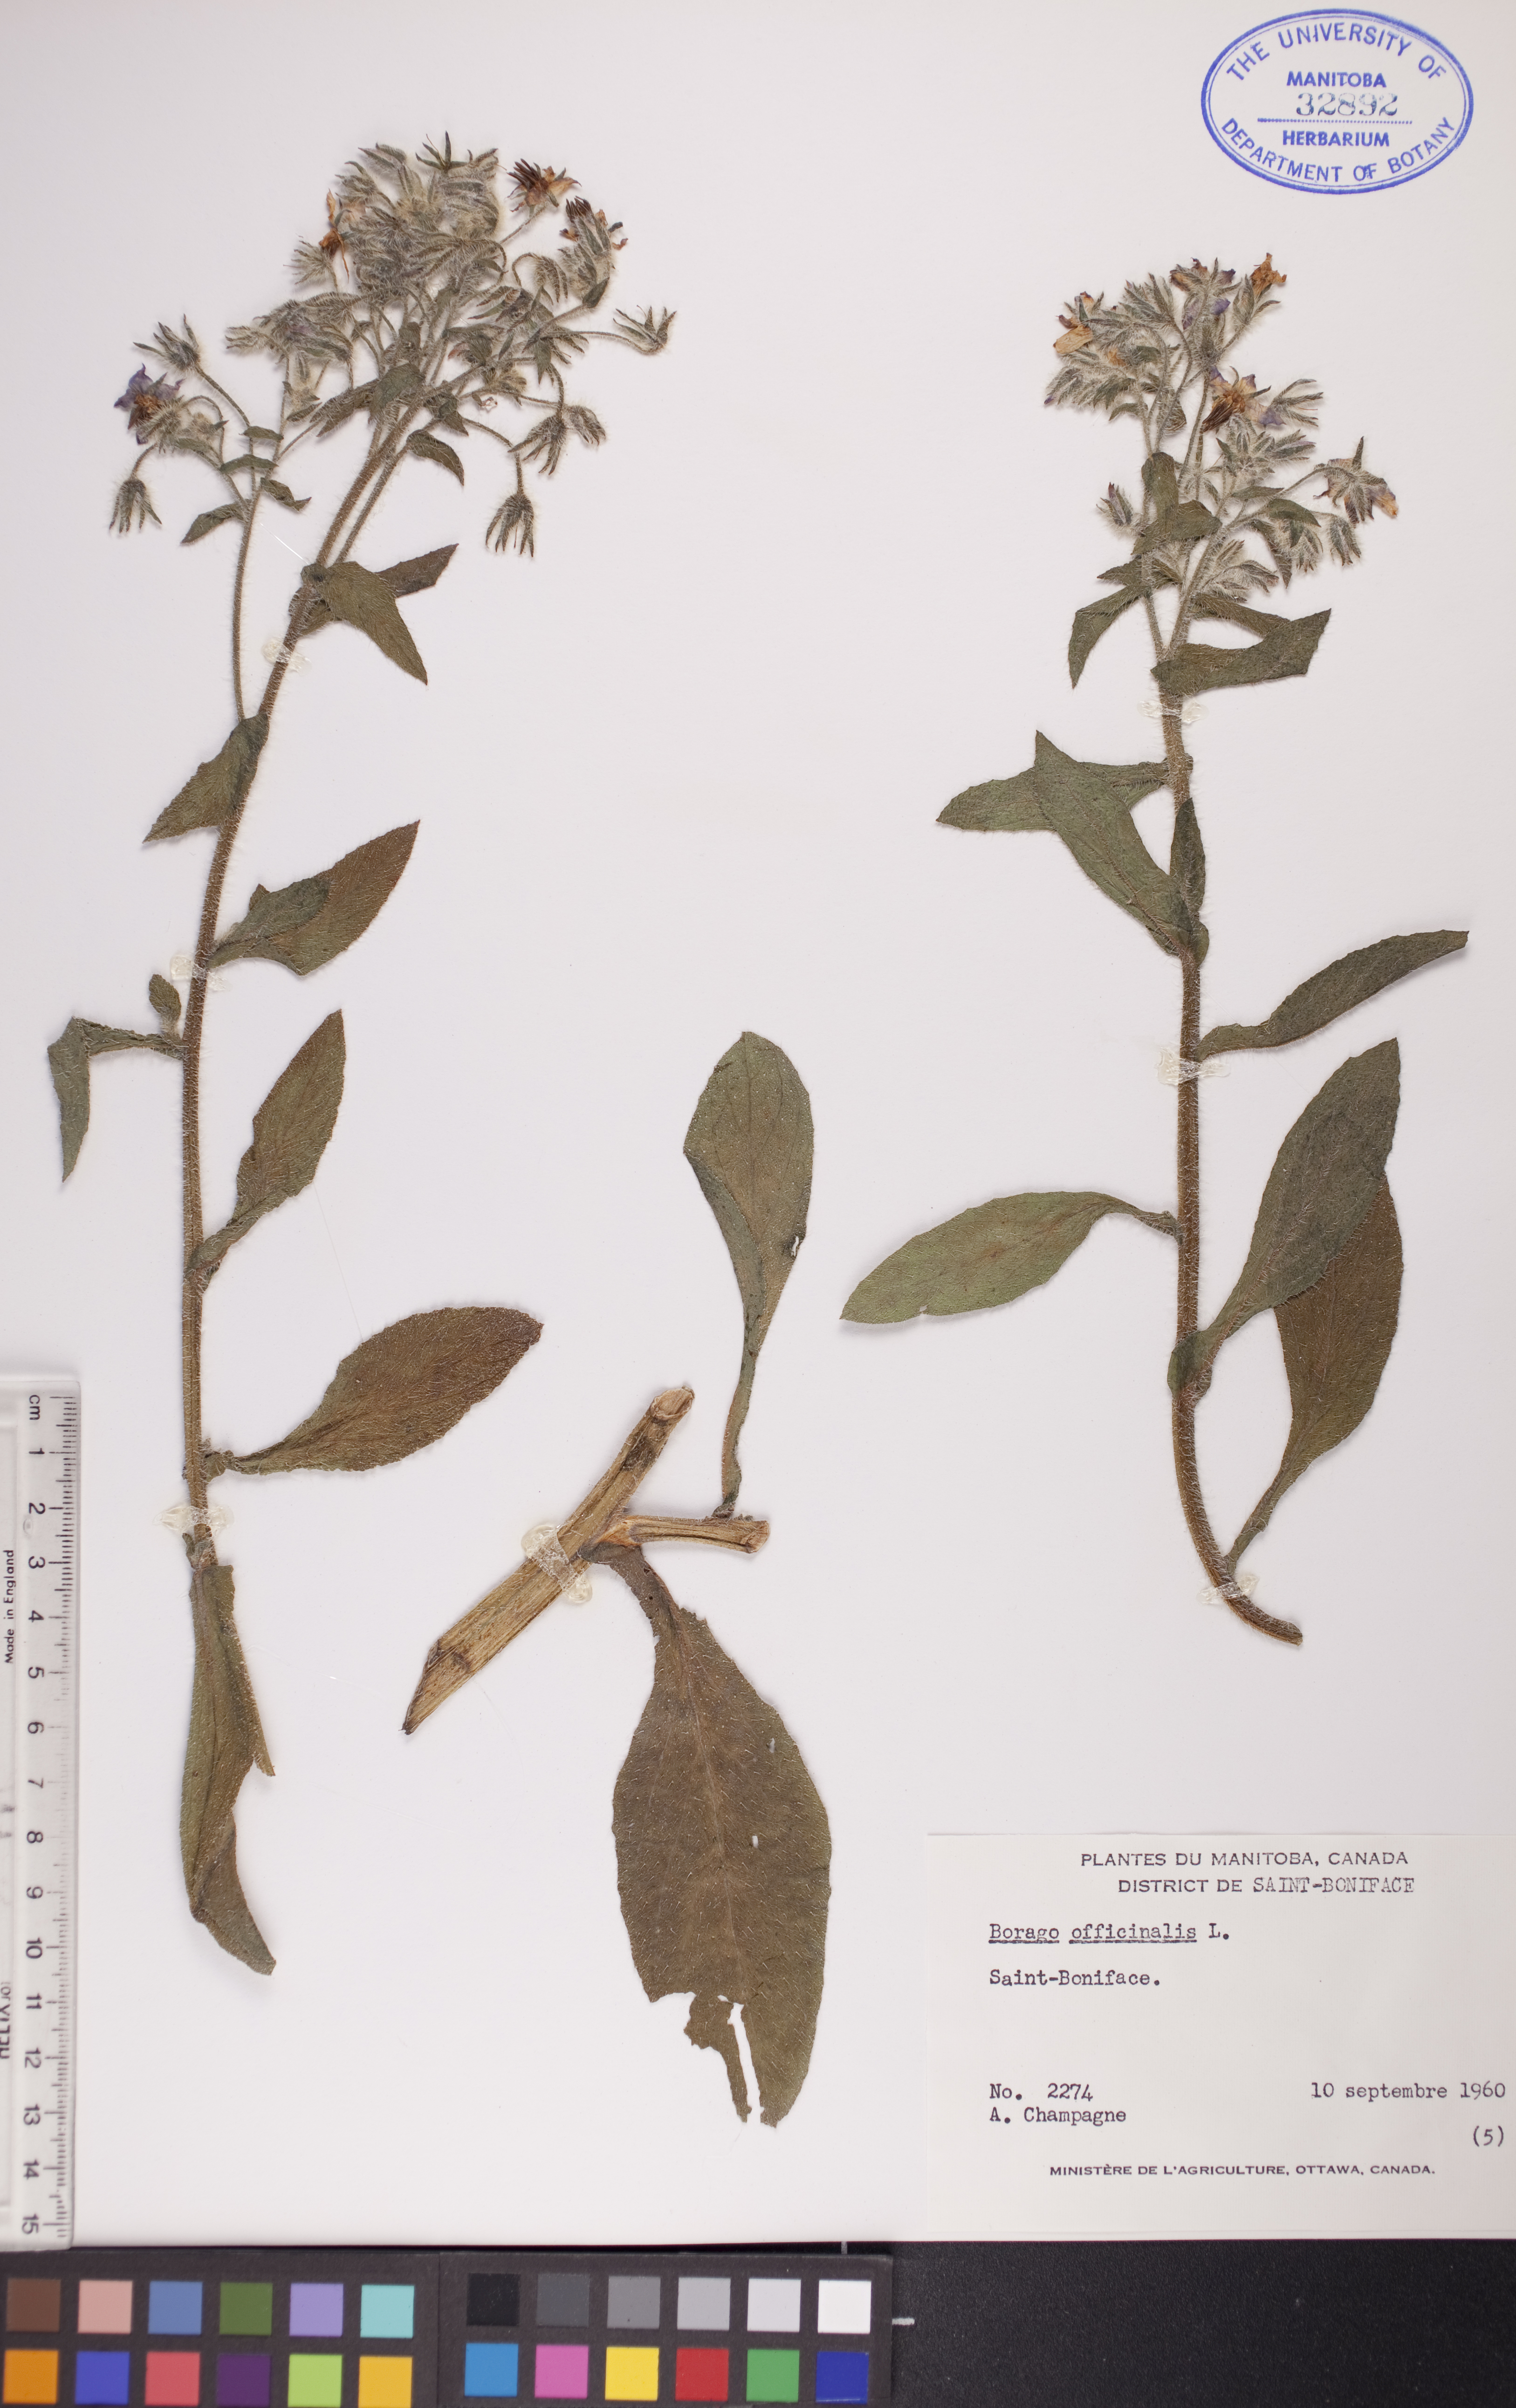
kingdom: Plantae
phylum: Tracheophyta
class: Magnoliopsida
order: Boraginales
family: Boraginaceae
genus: Borago
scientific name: Borago officinalis
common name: Borage
